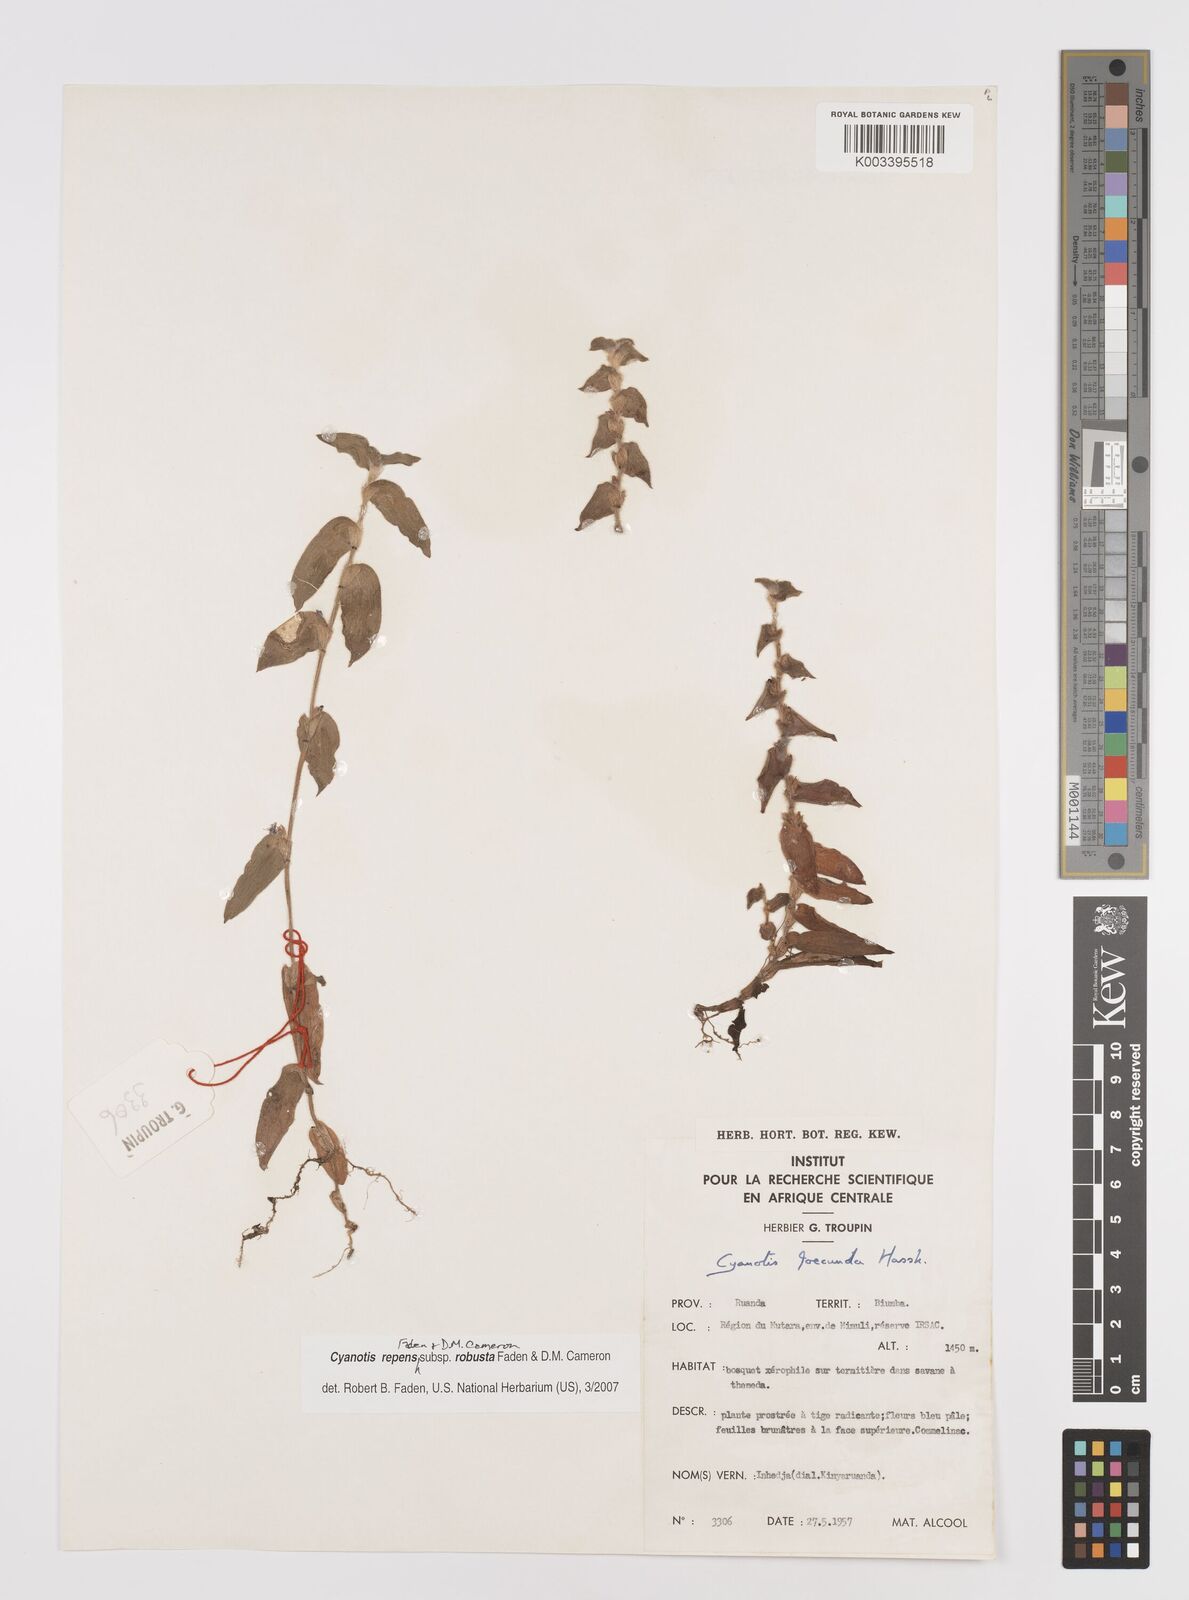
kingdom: Plantae
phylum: Tracheophyta
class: Liliopsida
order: Commelinales
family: Commelinaceae
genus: Cyanotis
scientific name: Cyanotis repens
